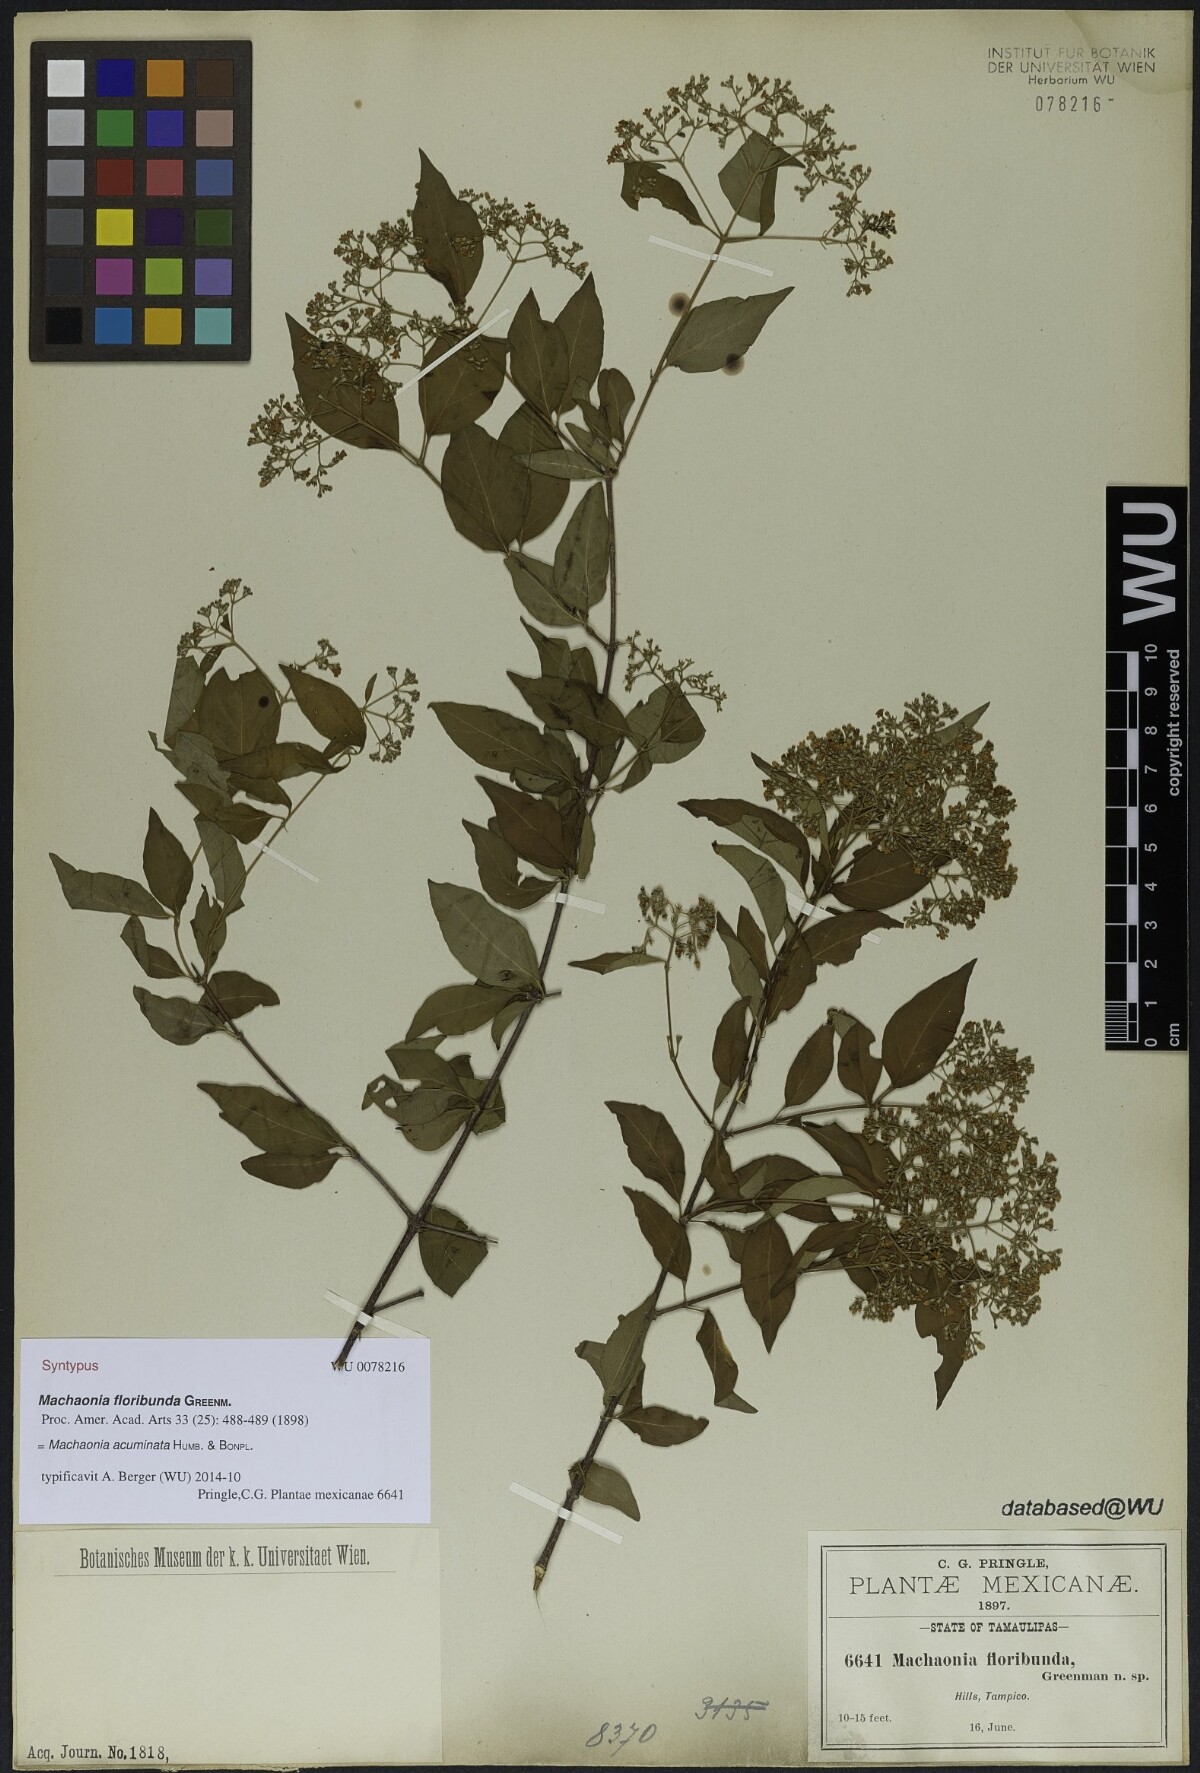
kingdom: Plantae
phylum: Tracheophyta
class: Magnoliopsida
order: Gentianales
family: Rubiaceae
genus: Machaonia
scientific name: Machaonia acuminata
